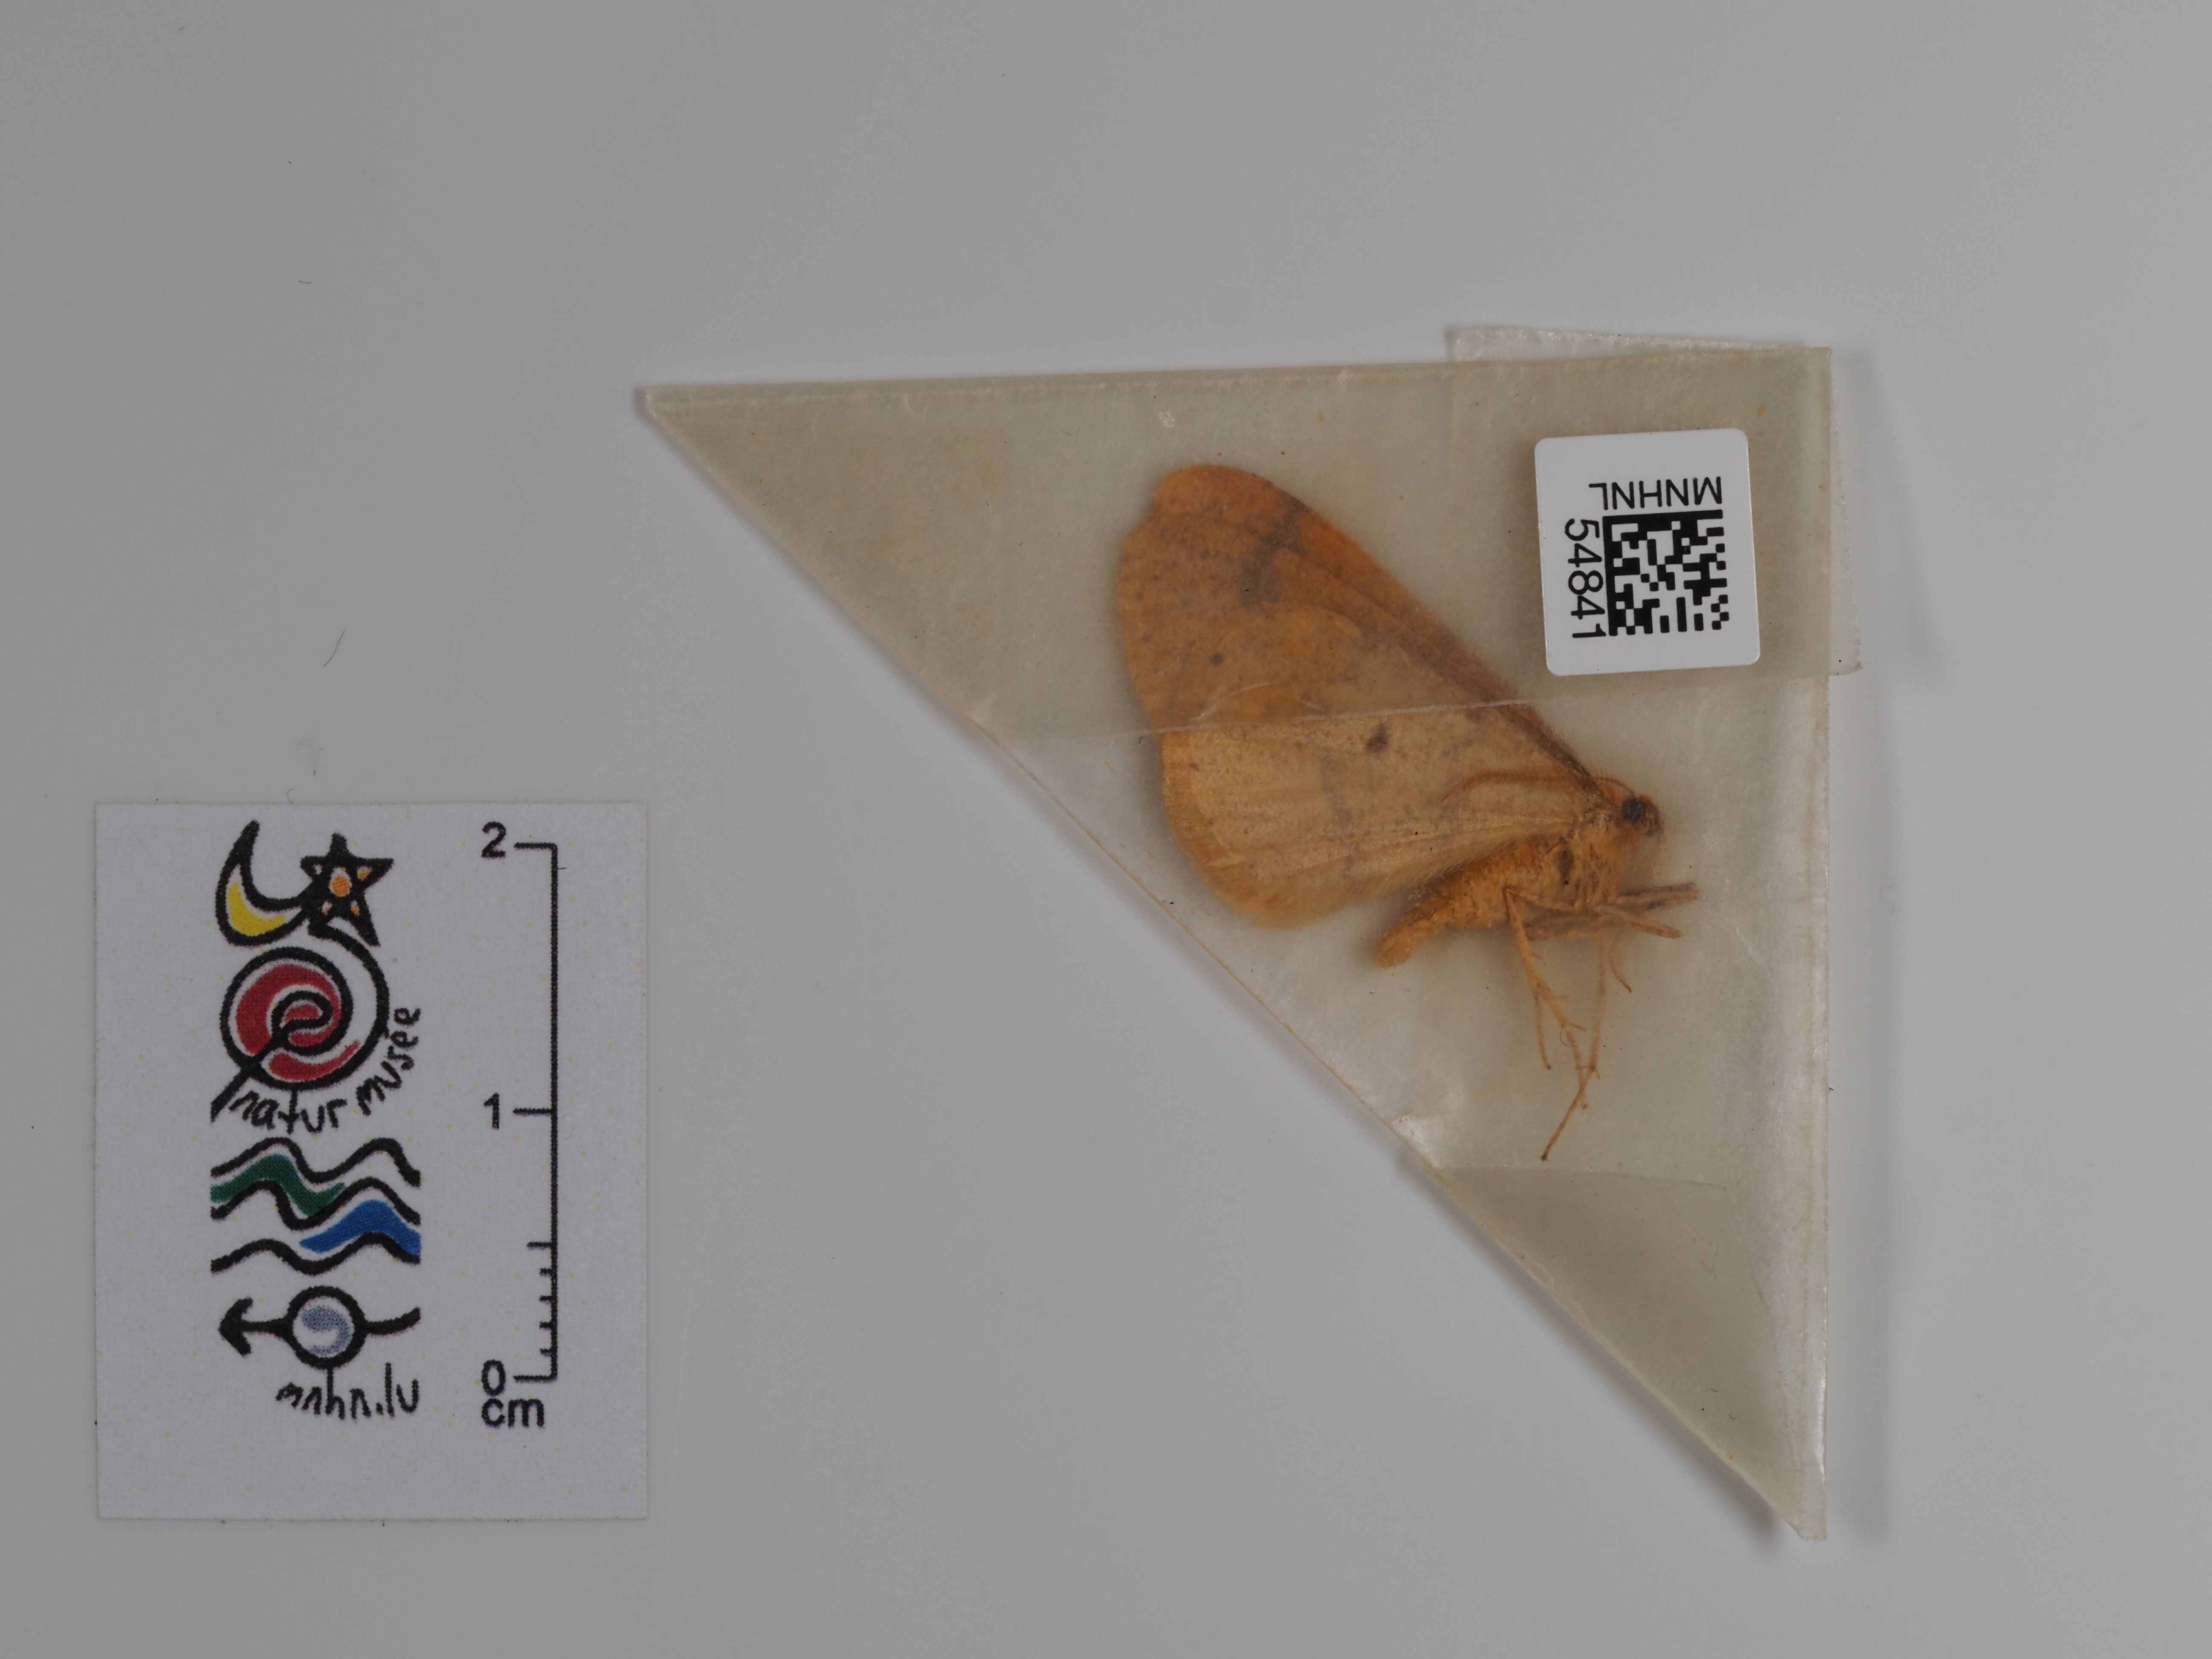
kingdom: Animalia
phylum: Arthropoda
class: Insecta
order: Lepidoptera
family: Geometridae
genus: Agriopis
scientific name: Agriopis aurantiaria
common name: Scarce umber
